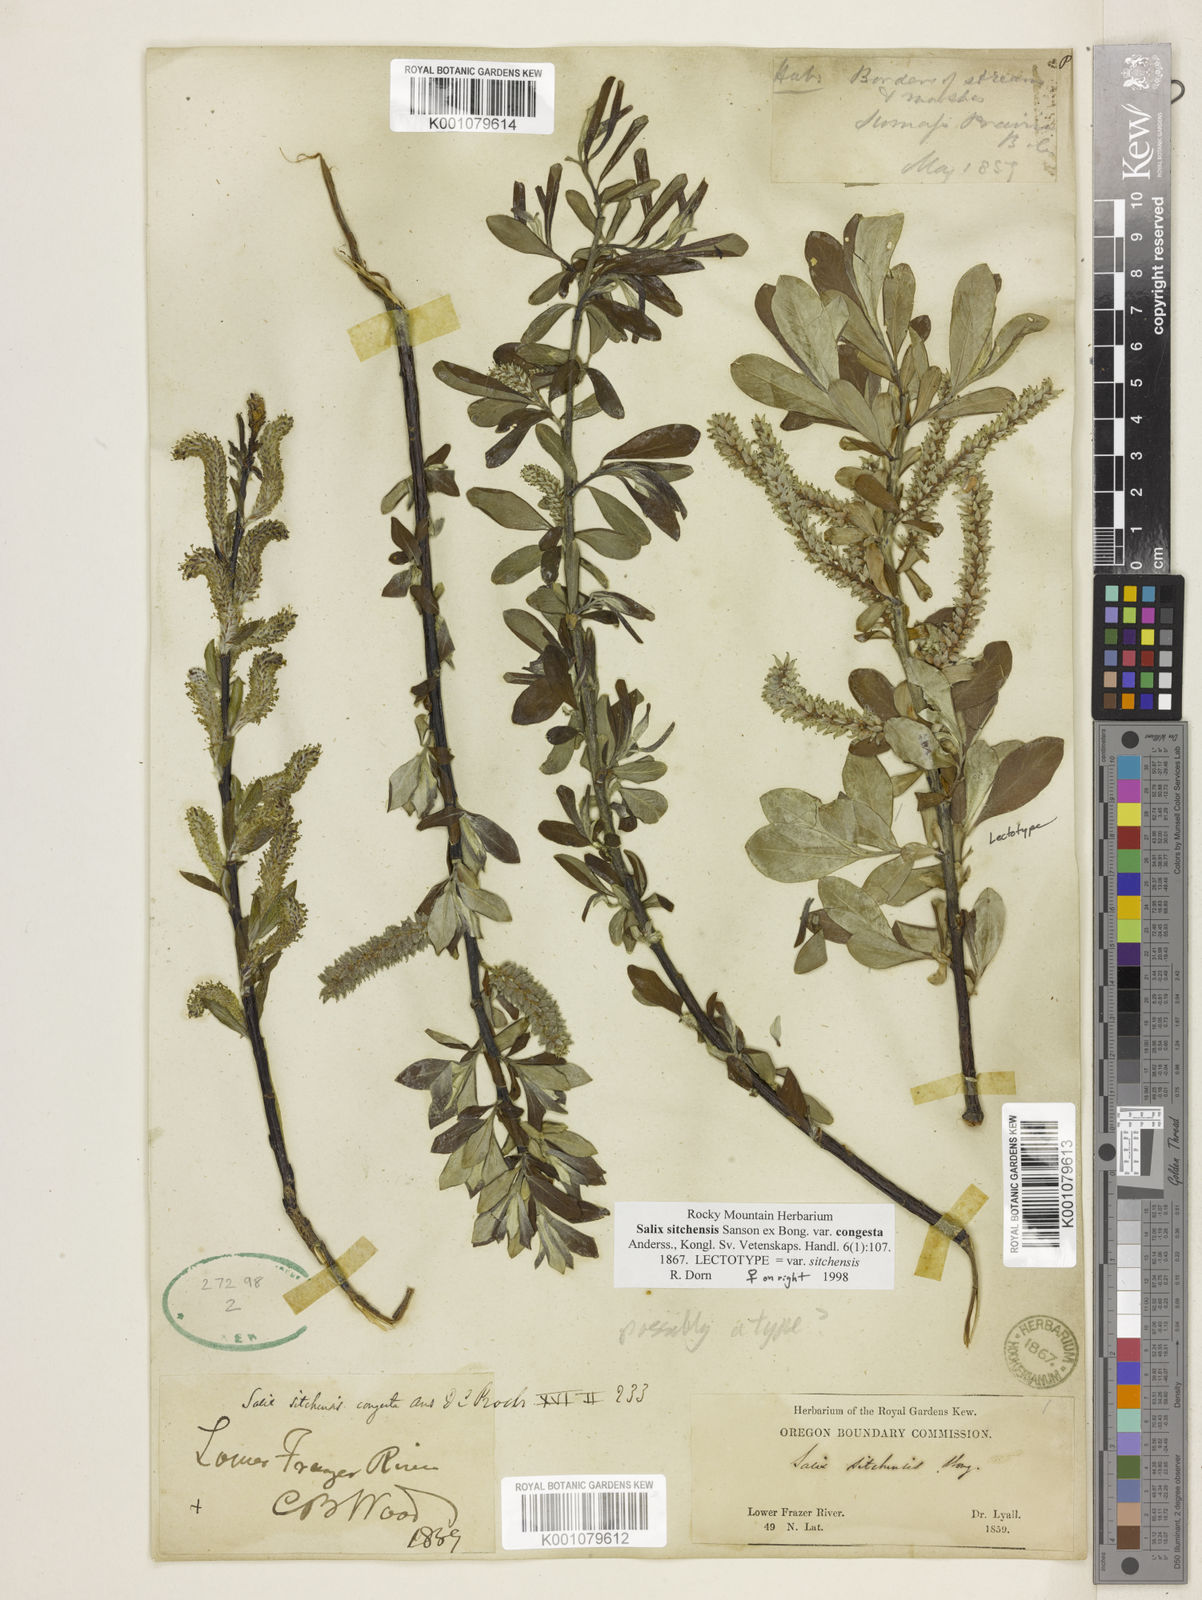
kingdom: Plantae
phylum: Tracheophyta
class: Magnoliopsida
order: Malpighiales
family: Salicaceae
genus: Salix
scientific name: Salix sitchensis
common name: Sitka willow
